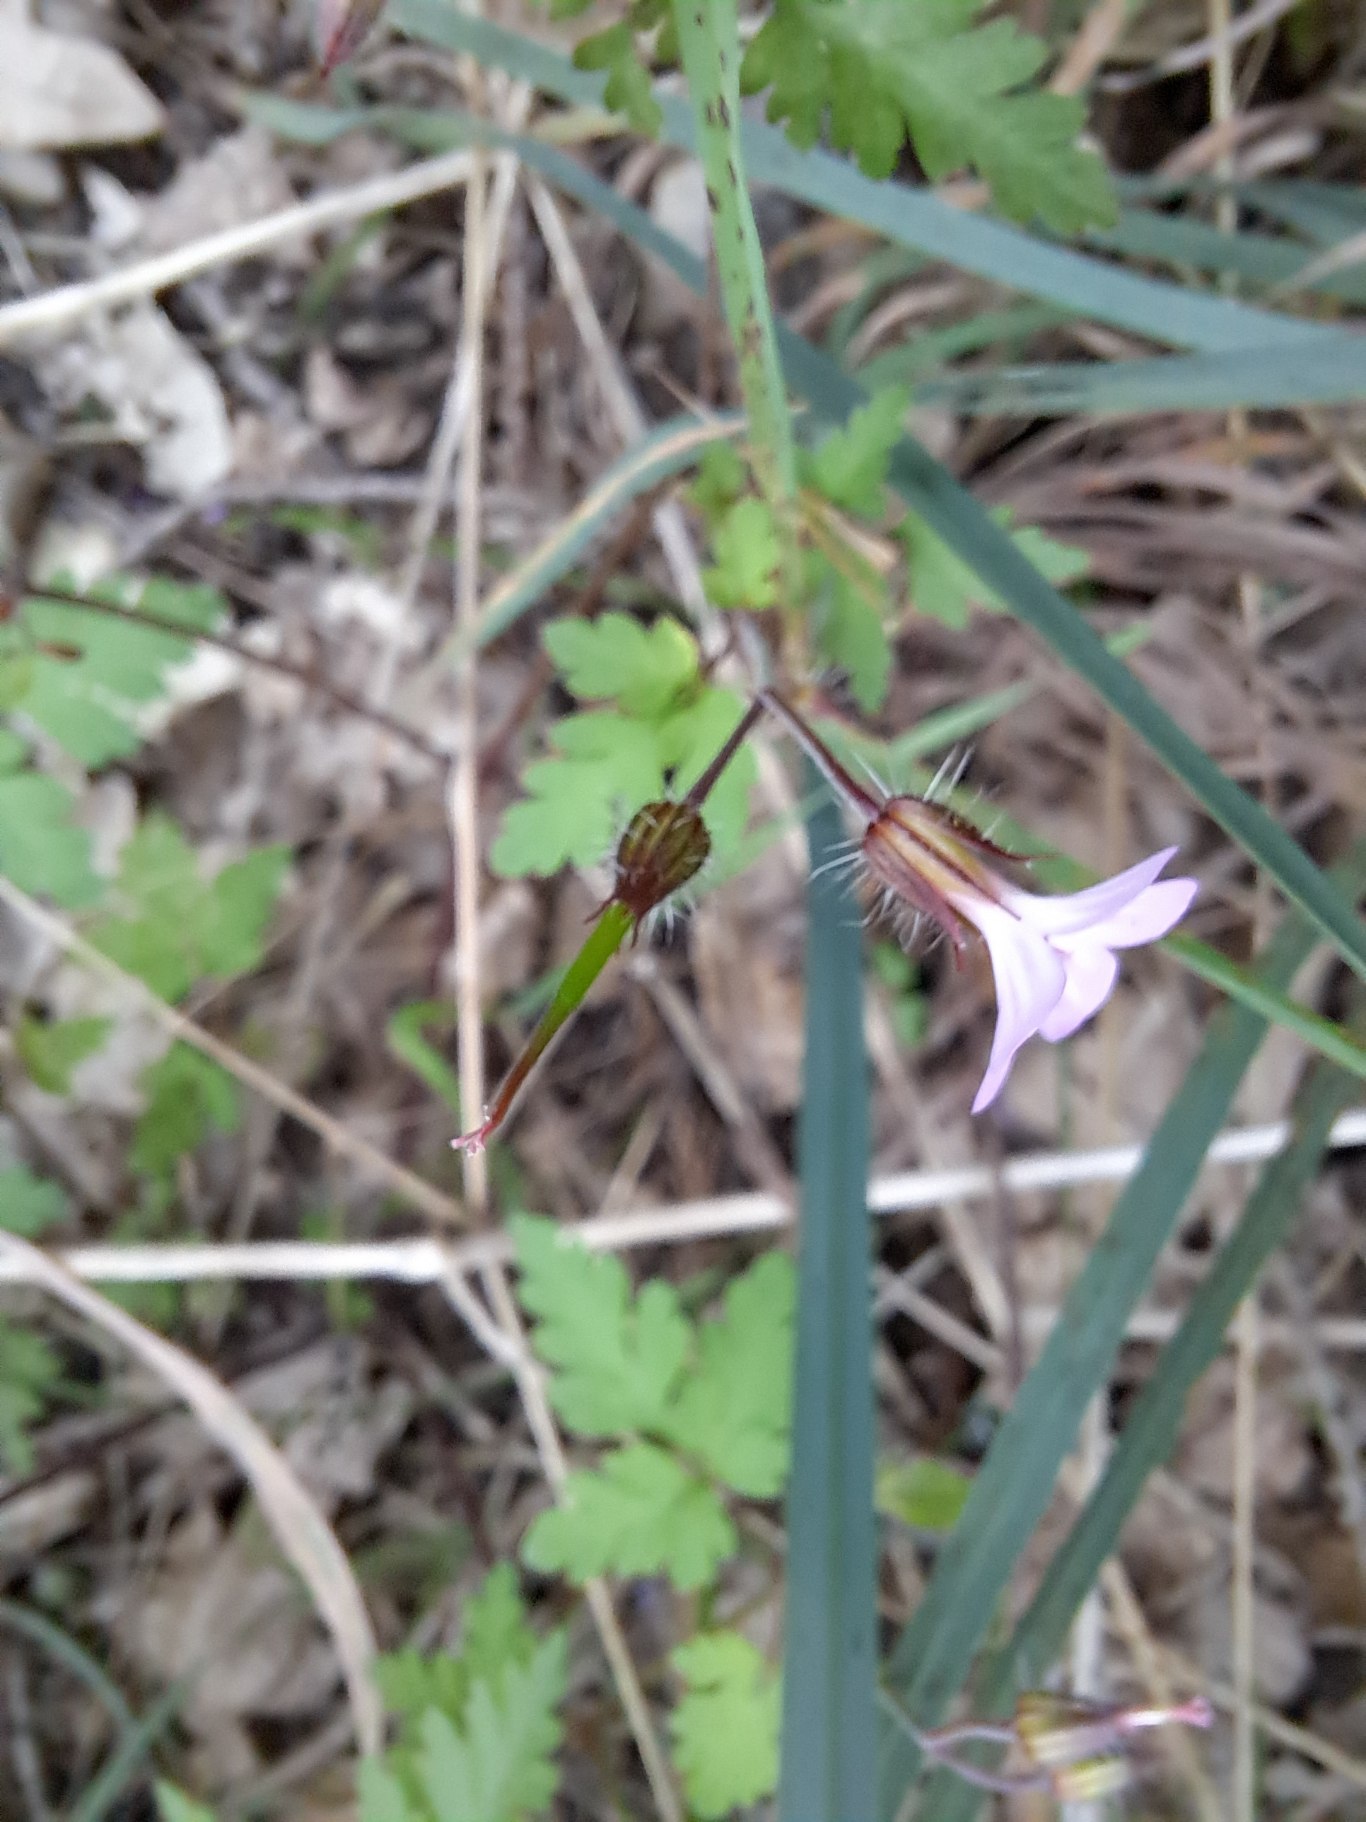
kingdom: Plantae
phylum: Tracheophyta
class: Magnoliopsida
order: Geraniales
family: Geraniaceae
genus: Geranium
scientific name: Geranium robertianum
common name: Stinkende storkenæb
